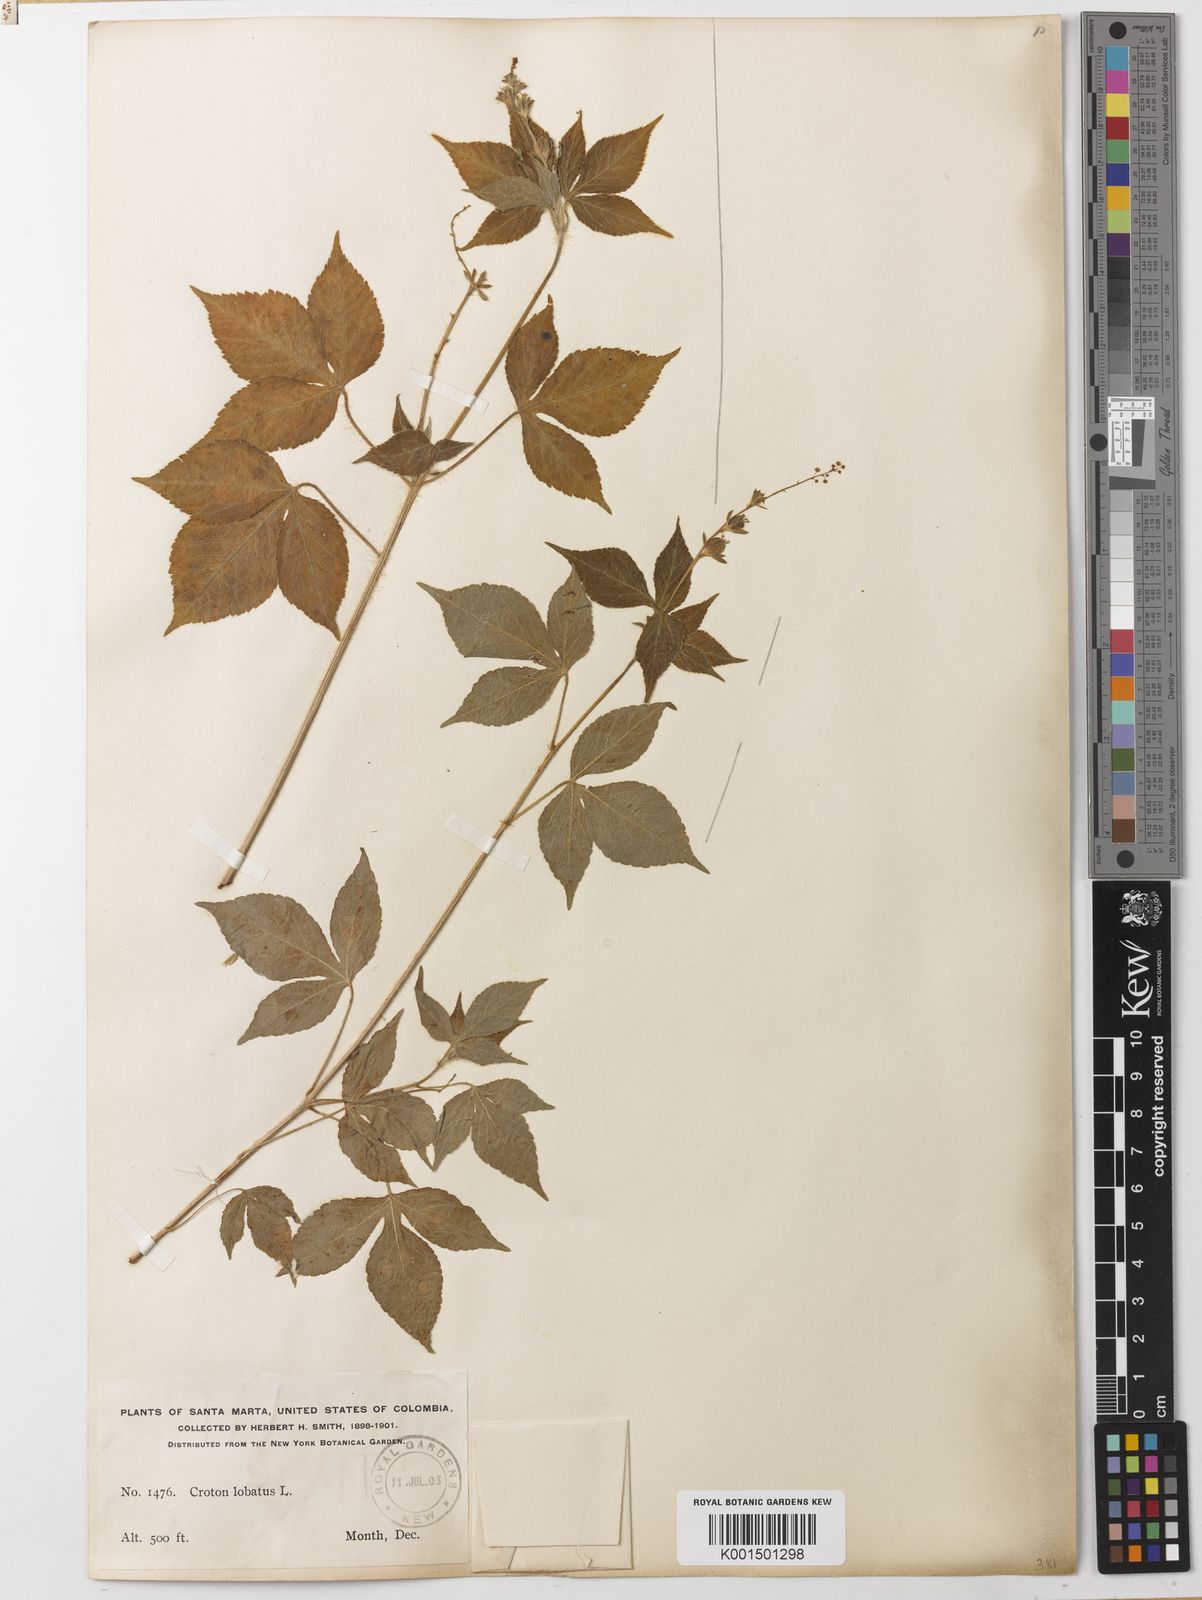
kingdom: Plantae
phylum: Tracheophyta
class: Magnoliopsida
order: Malpighiales
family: Euphorbiaceae
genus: Astraea
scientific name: Astraea lobata
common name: Lobed croton
